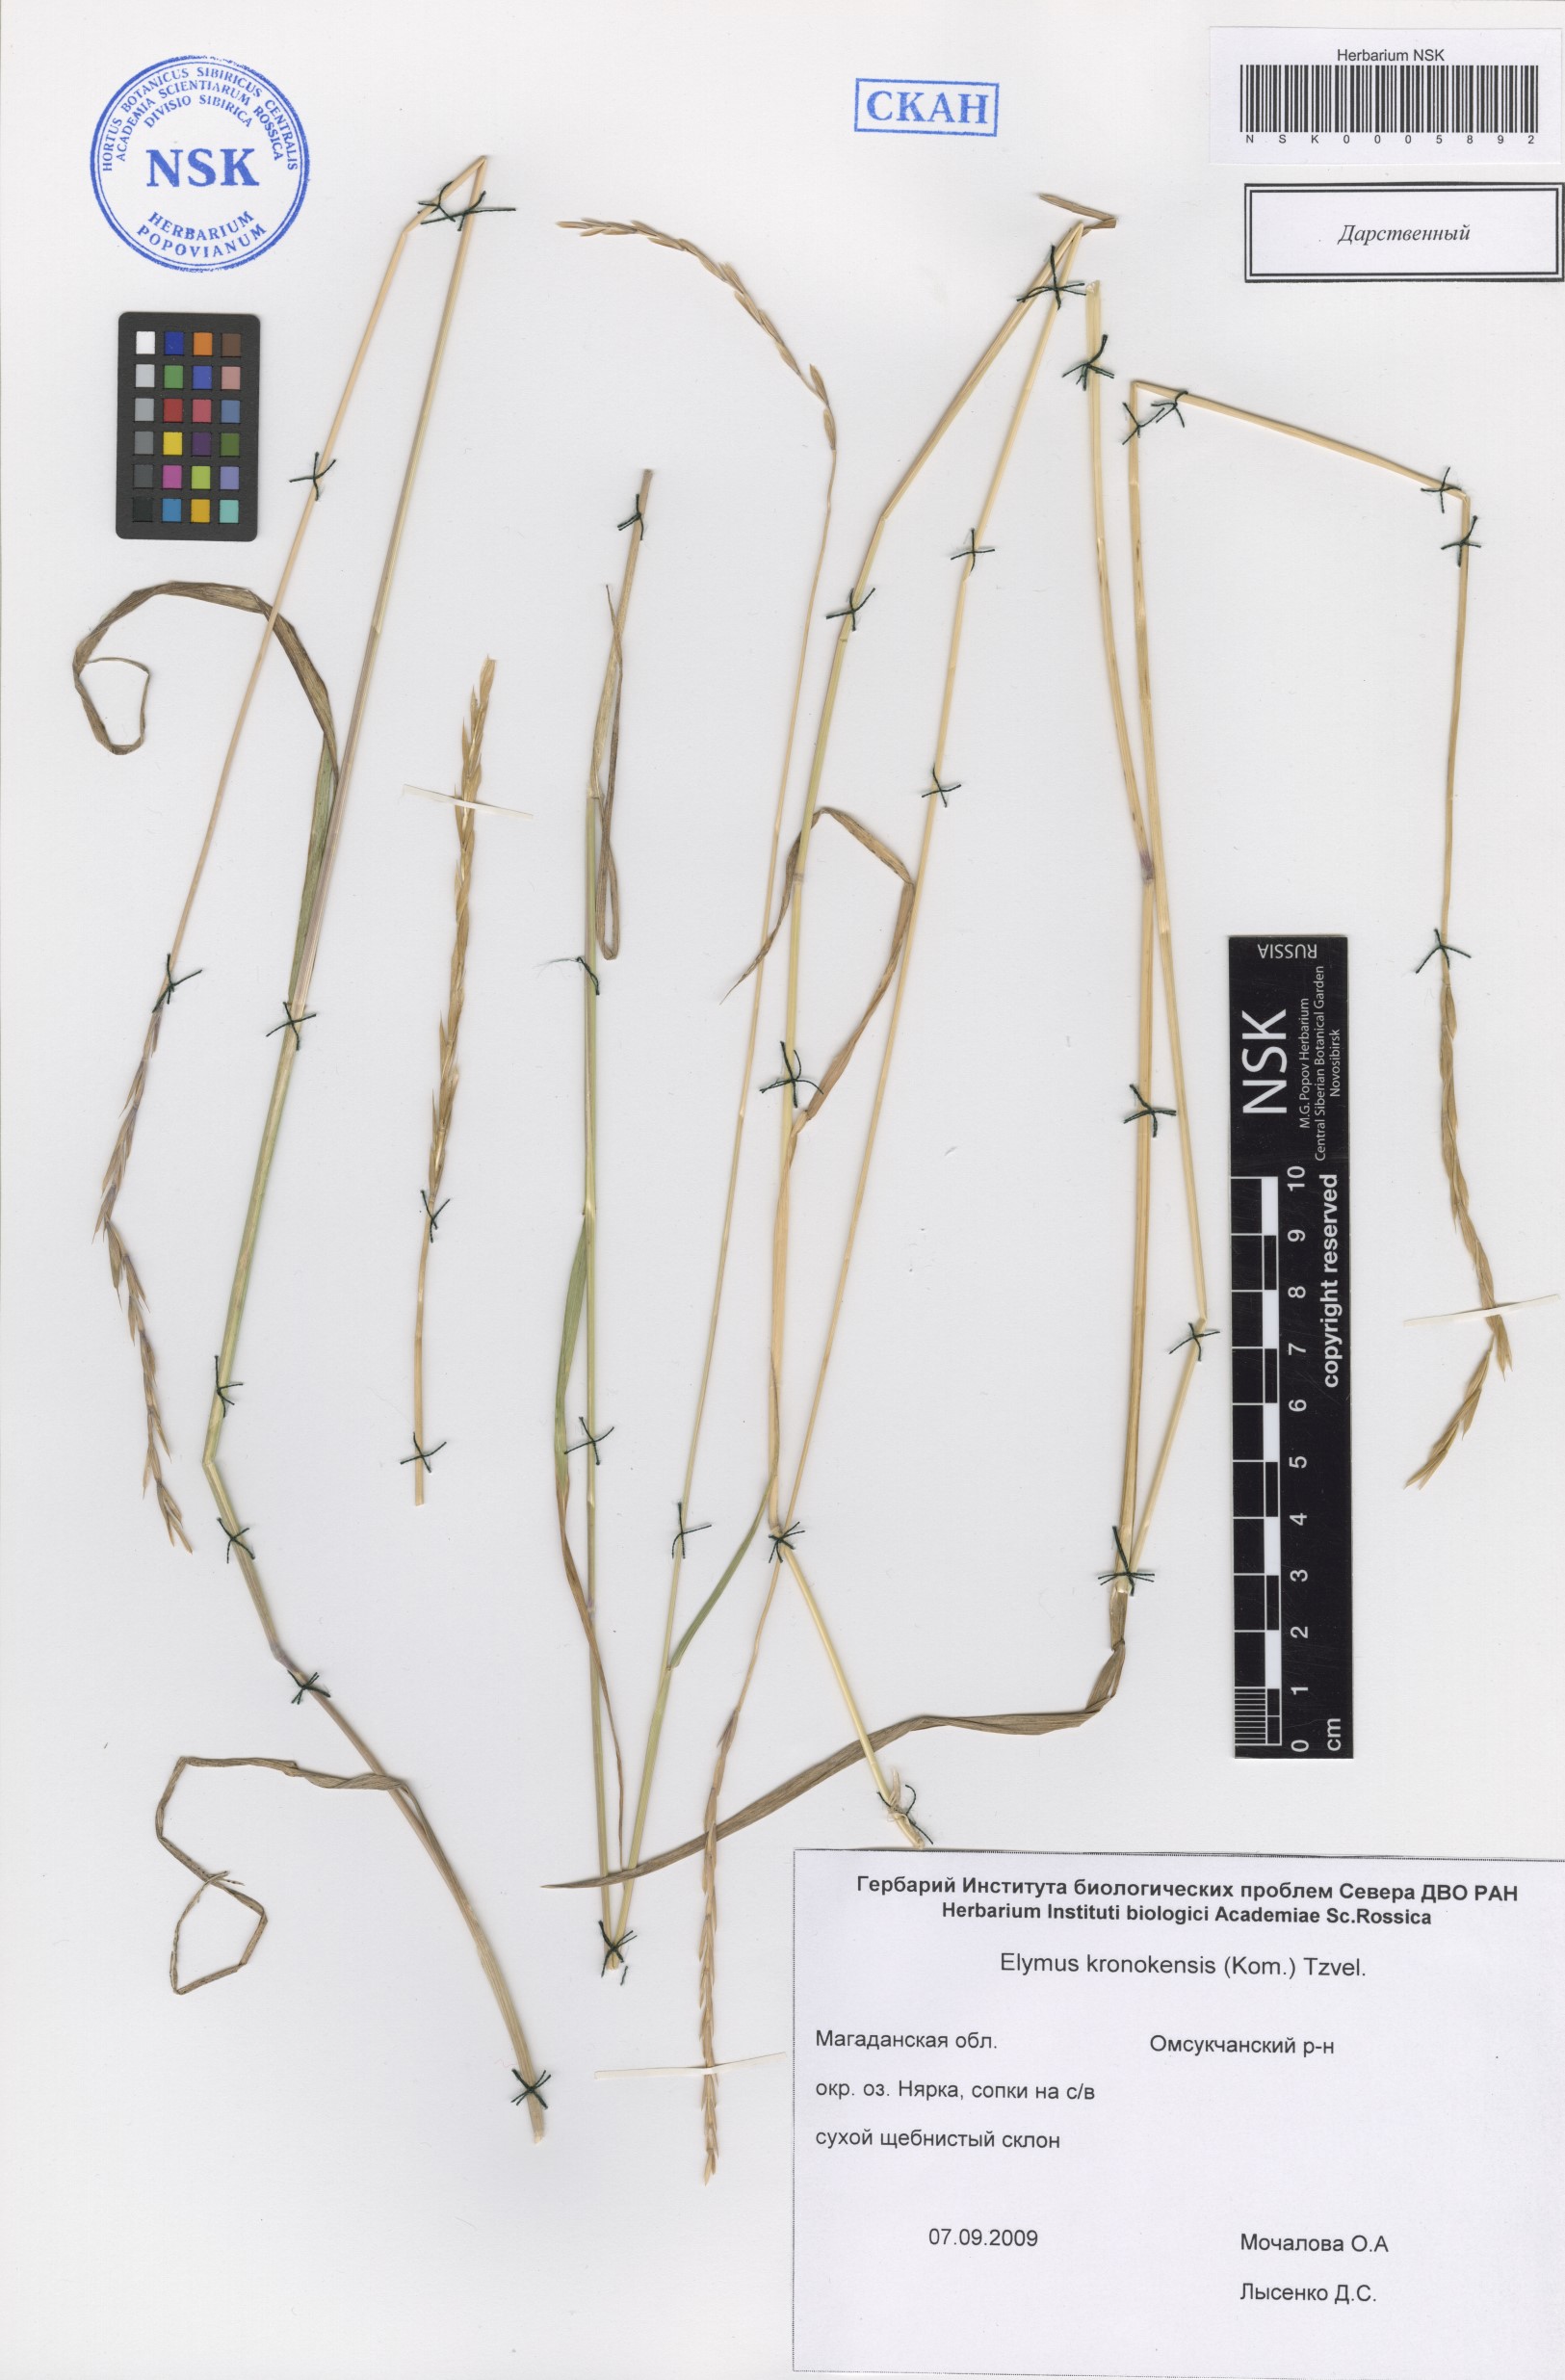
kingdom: Plantae
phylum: Tracheophyta
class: Liliopsida
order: Poales
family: Poaceae
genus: Elymus
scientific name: Elymus macrourus
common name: Northern wheatgrass
